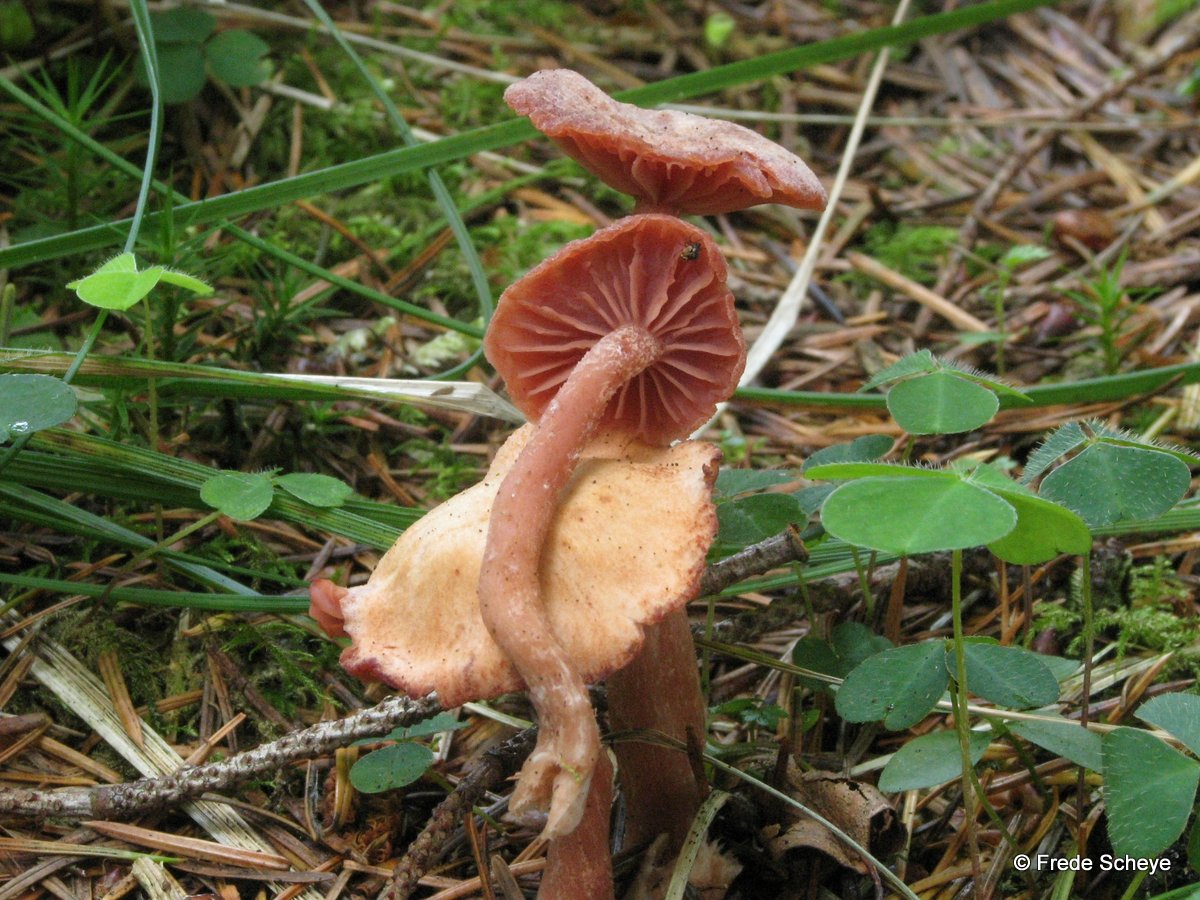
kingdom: Fungi
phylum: Basidiomycota
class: Agaricomycetes
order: Agaricales
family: Hydnangiaceae
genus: Laccaria
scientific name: Laccaria laccata
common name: rød ametysthat
